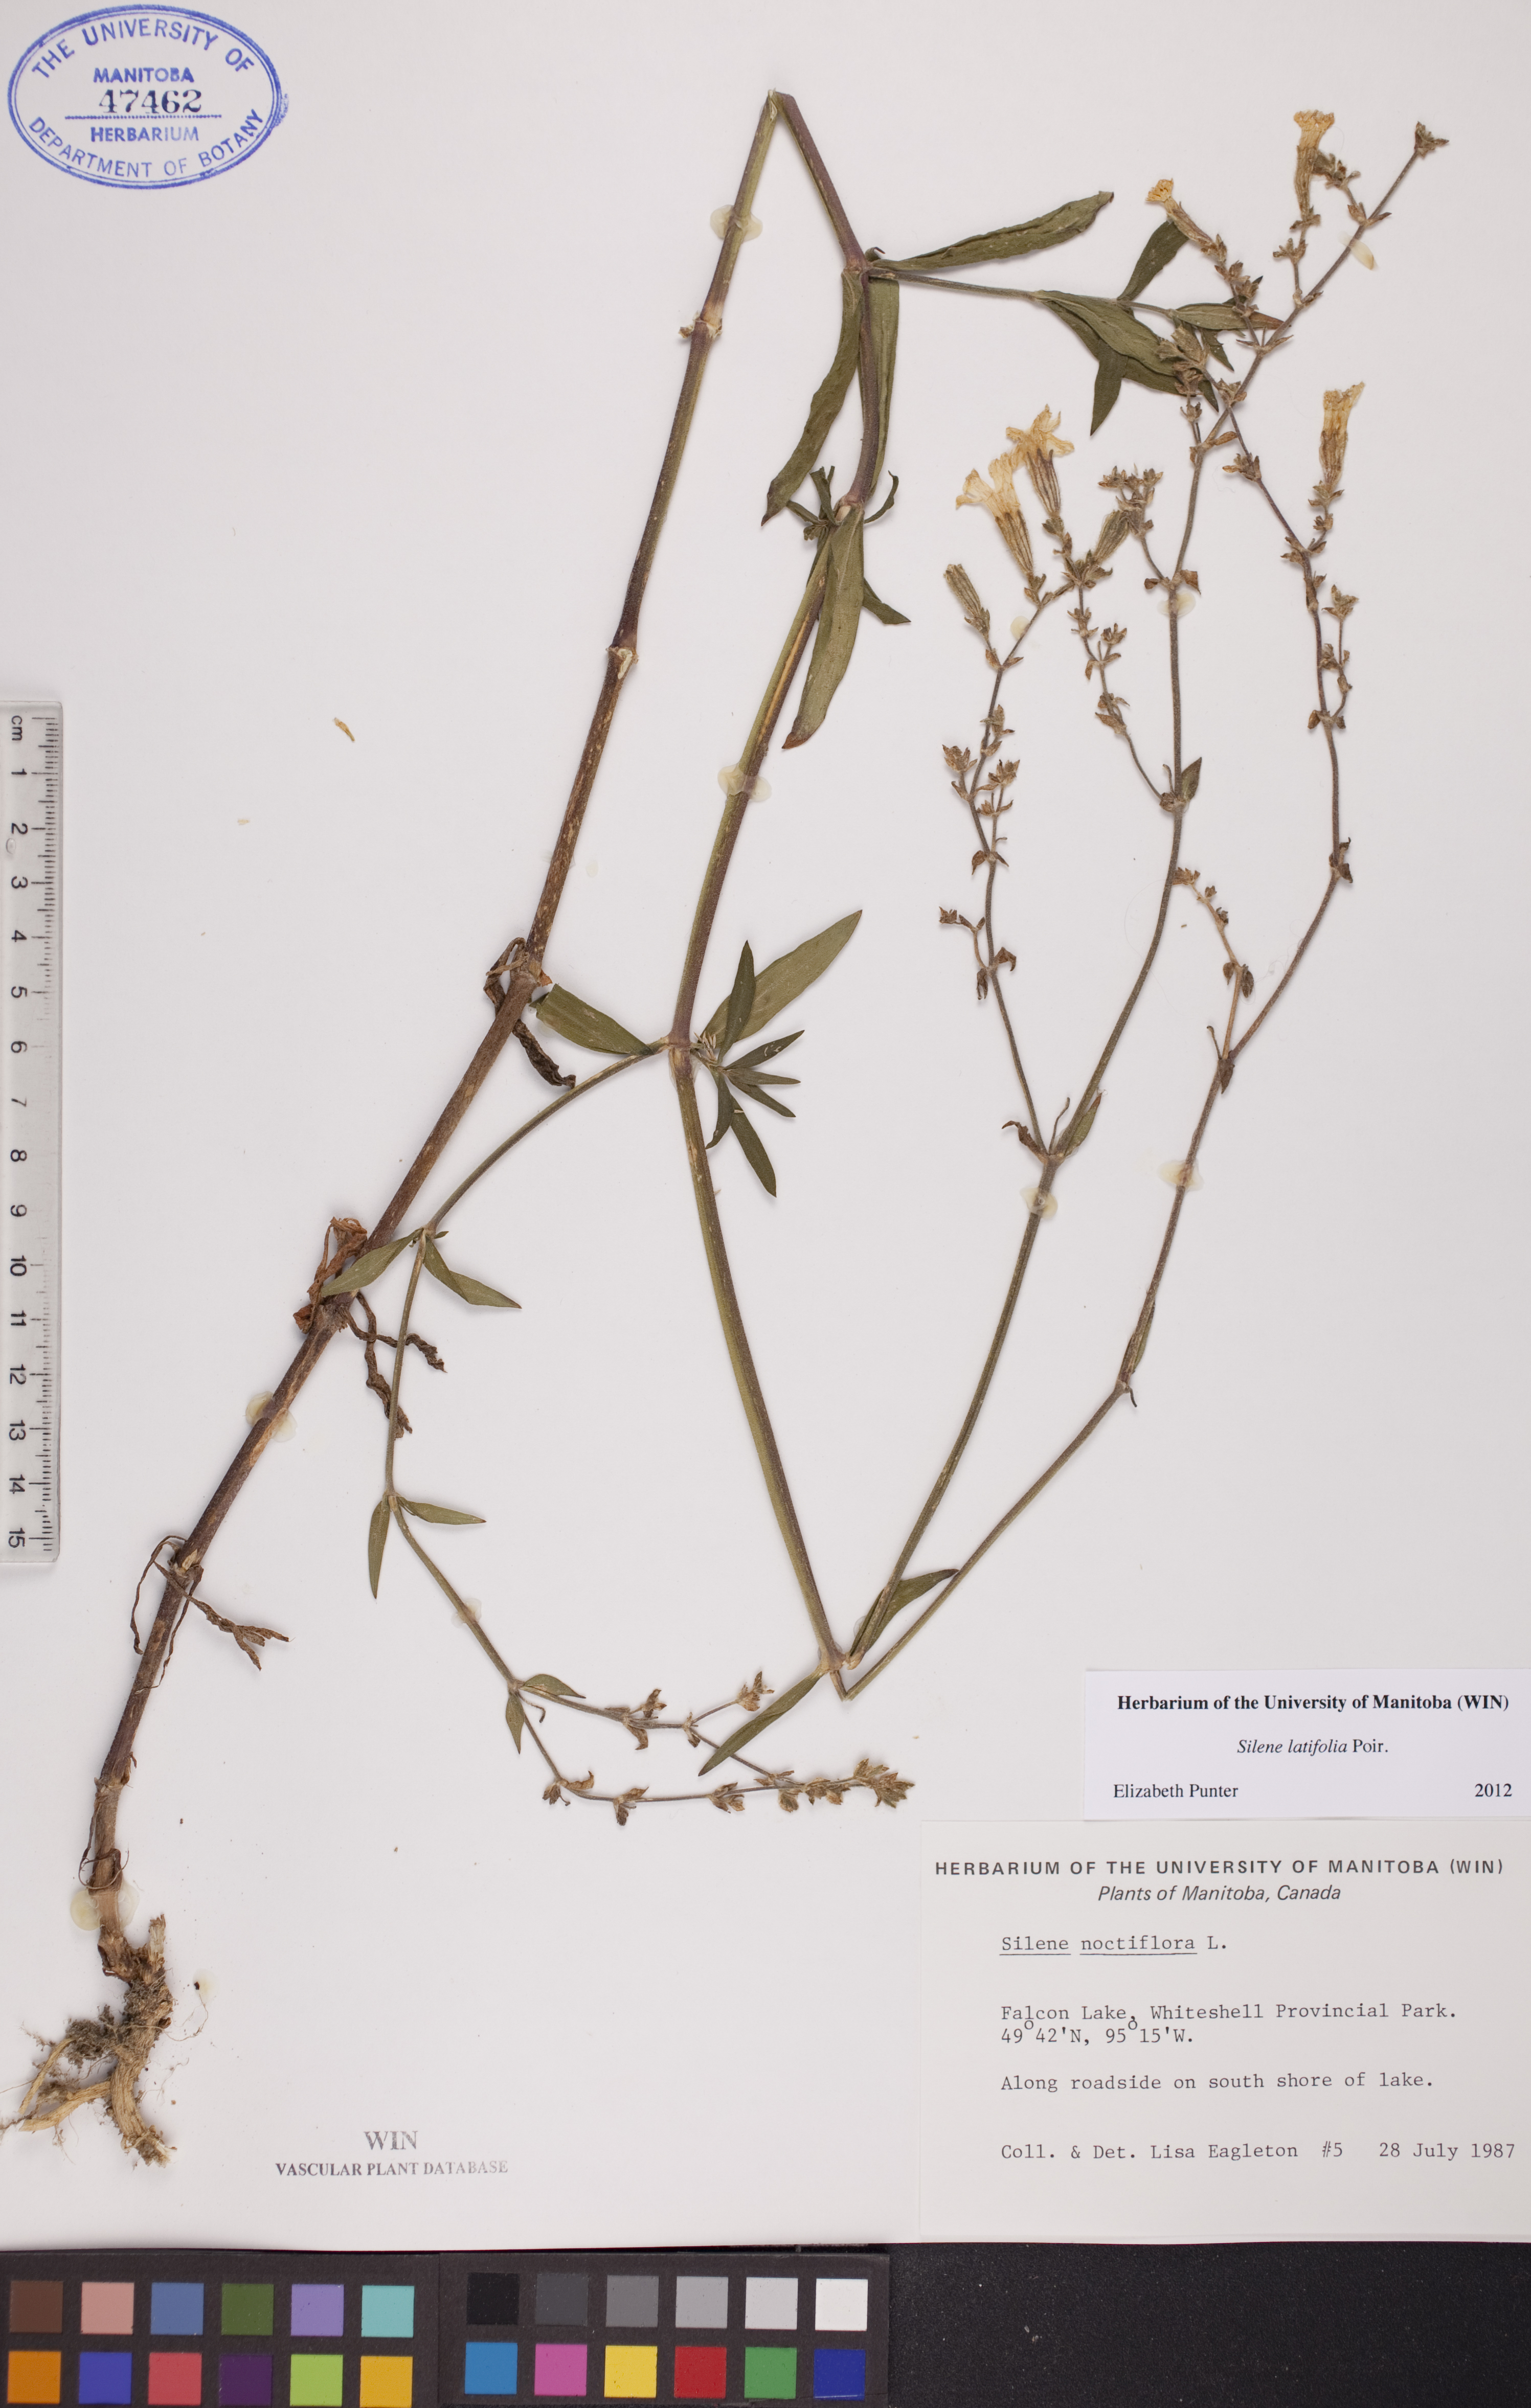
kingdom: Plantae
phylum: Tracheophyta
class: Magnoliopsida
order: Caryophyllales
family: Caryophyllaceae
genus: Silene
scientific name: Silene latifolia
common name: White campion
